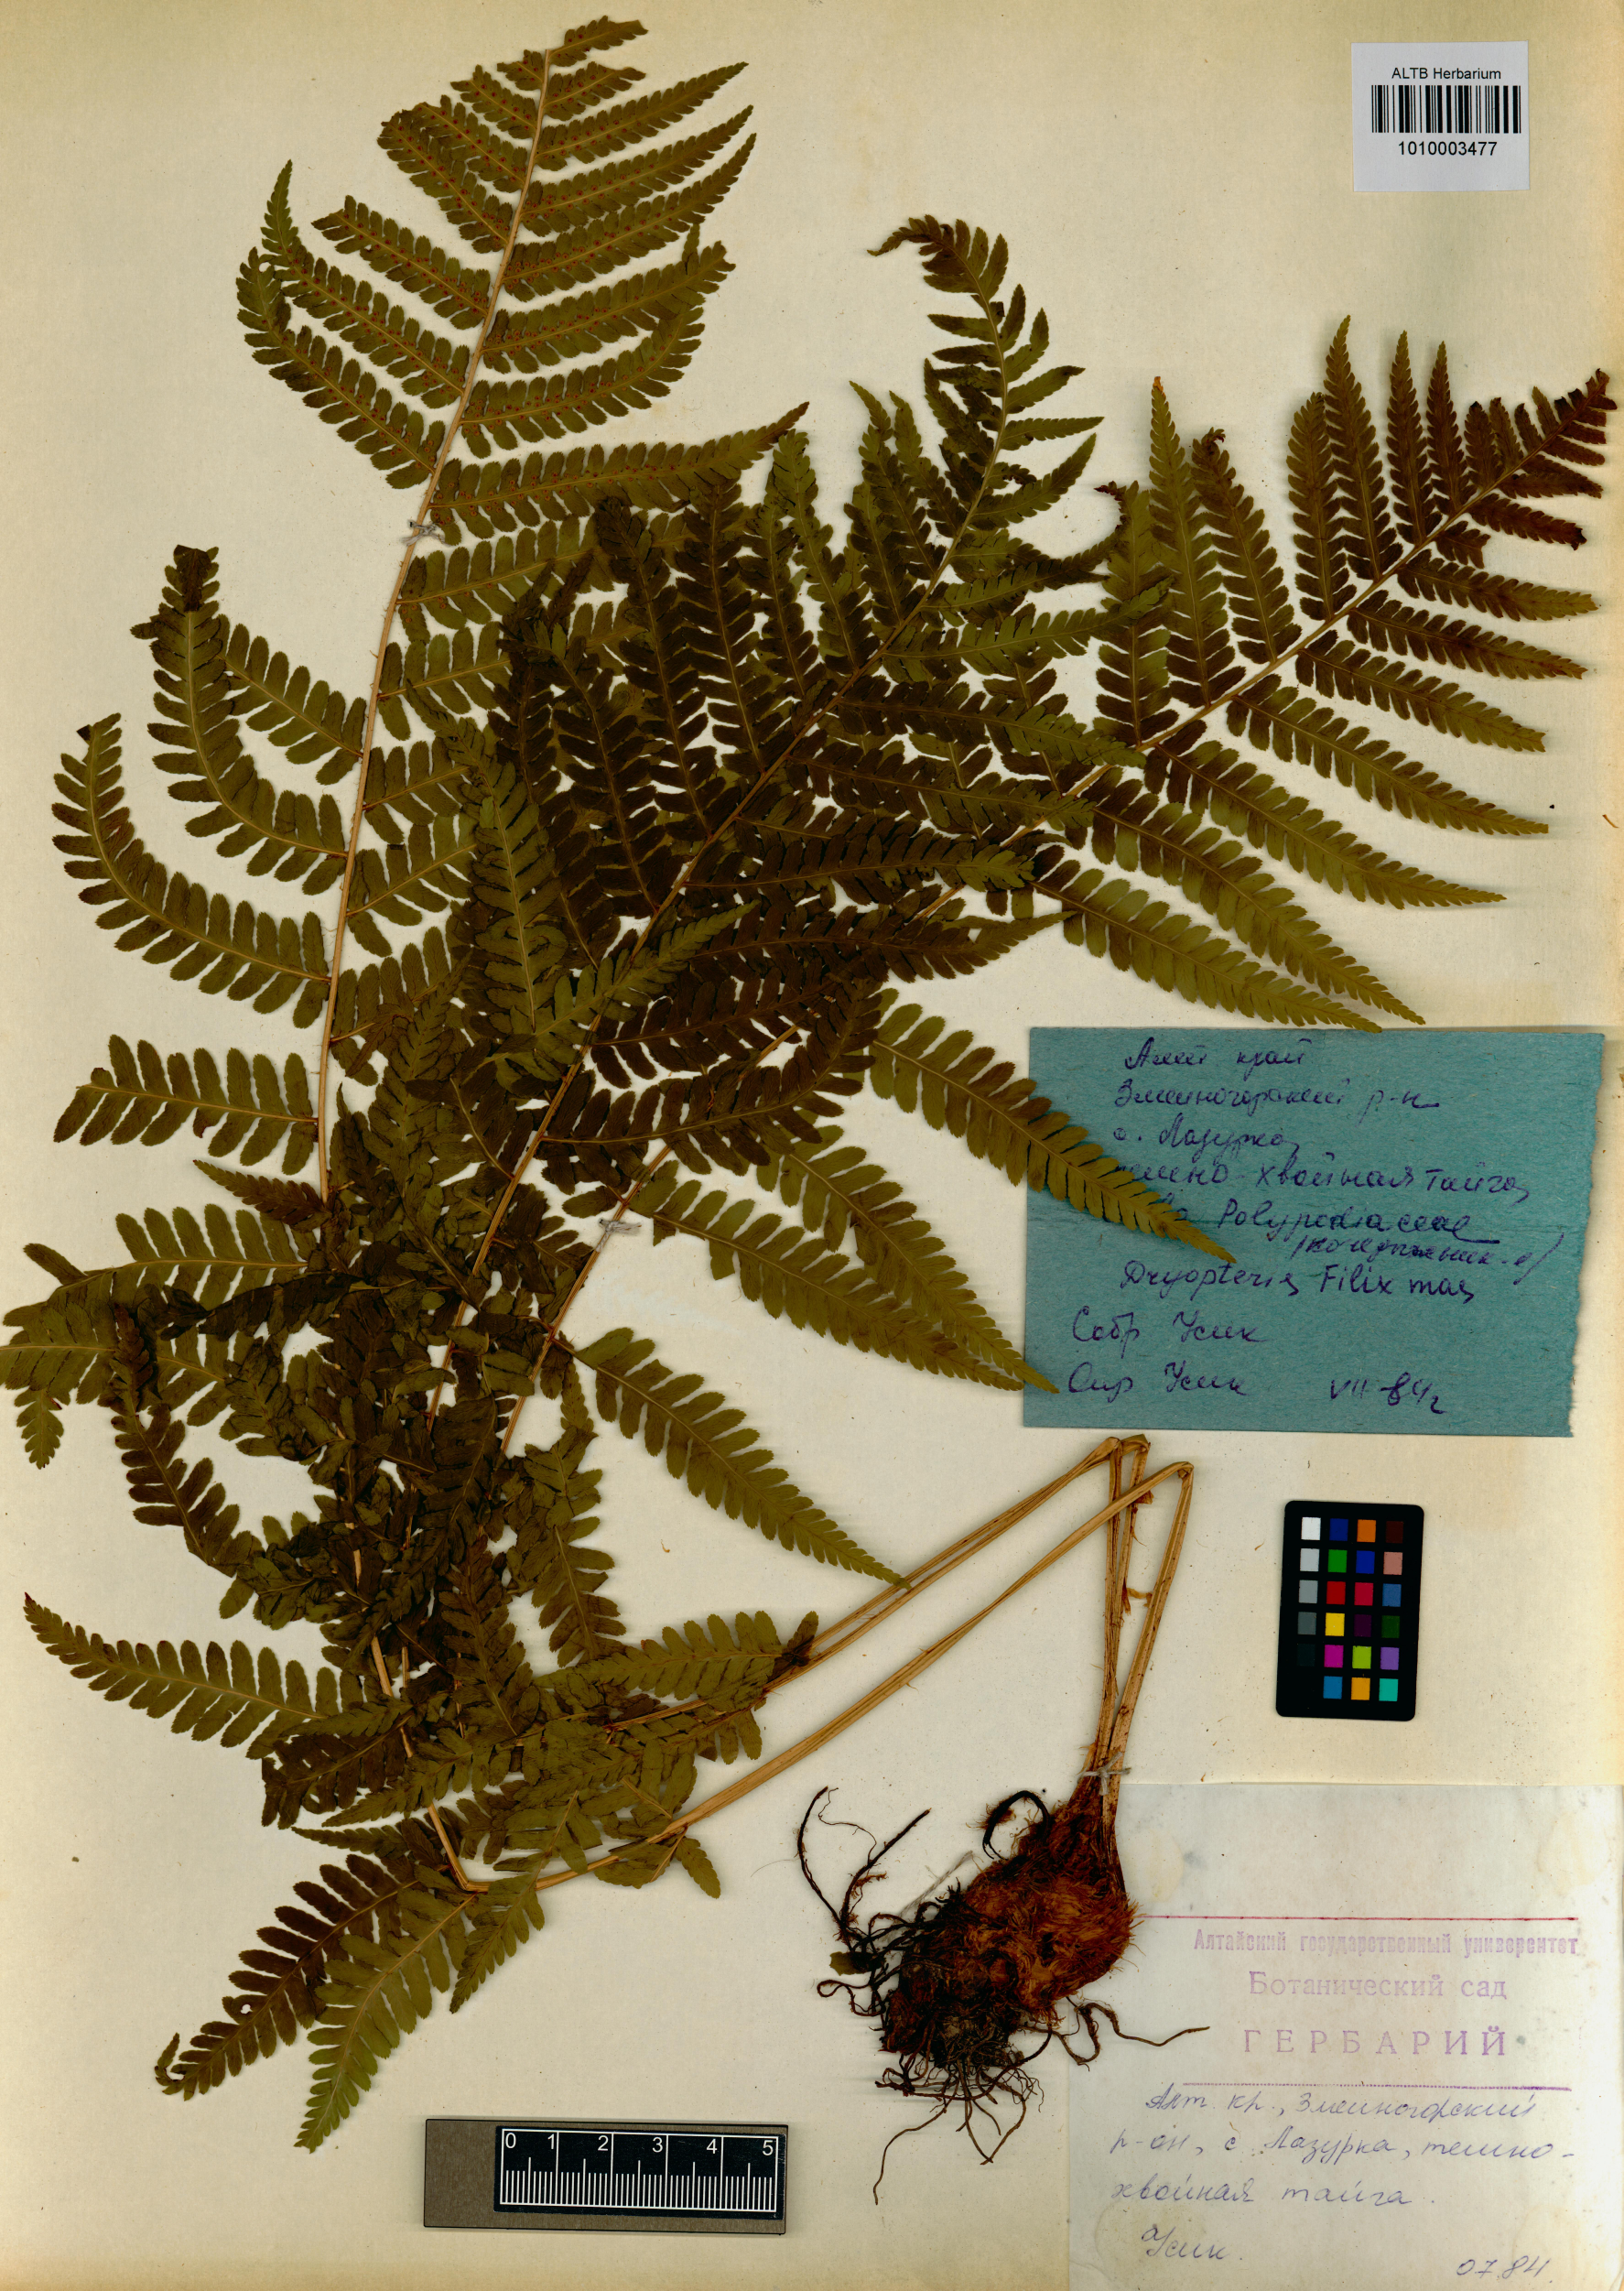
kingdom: Plantae
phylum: Tracheophyta
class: Polypodiopsida
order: Polypodiales
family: Dryopteridaceae
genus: Dryopteris
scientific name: Dryopteris filix-mas
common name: Male fern
